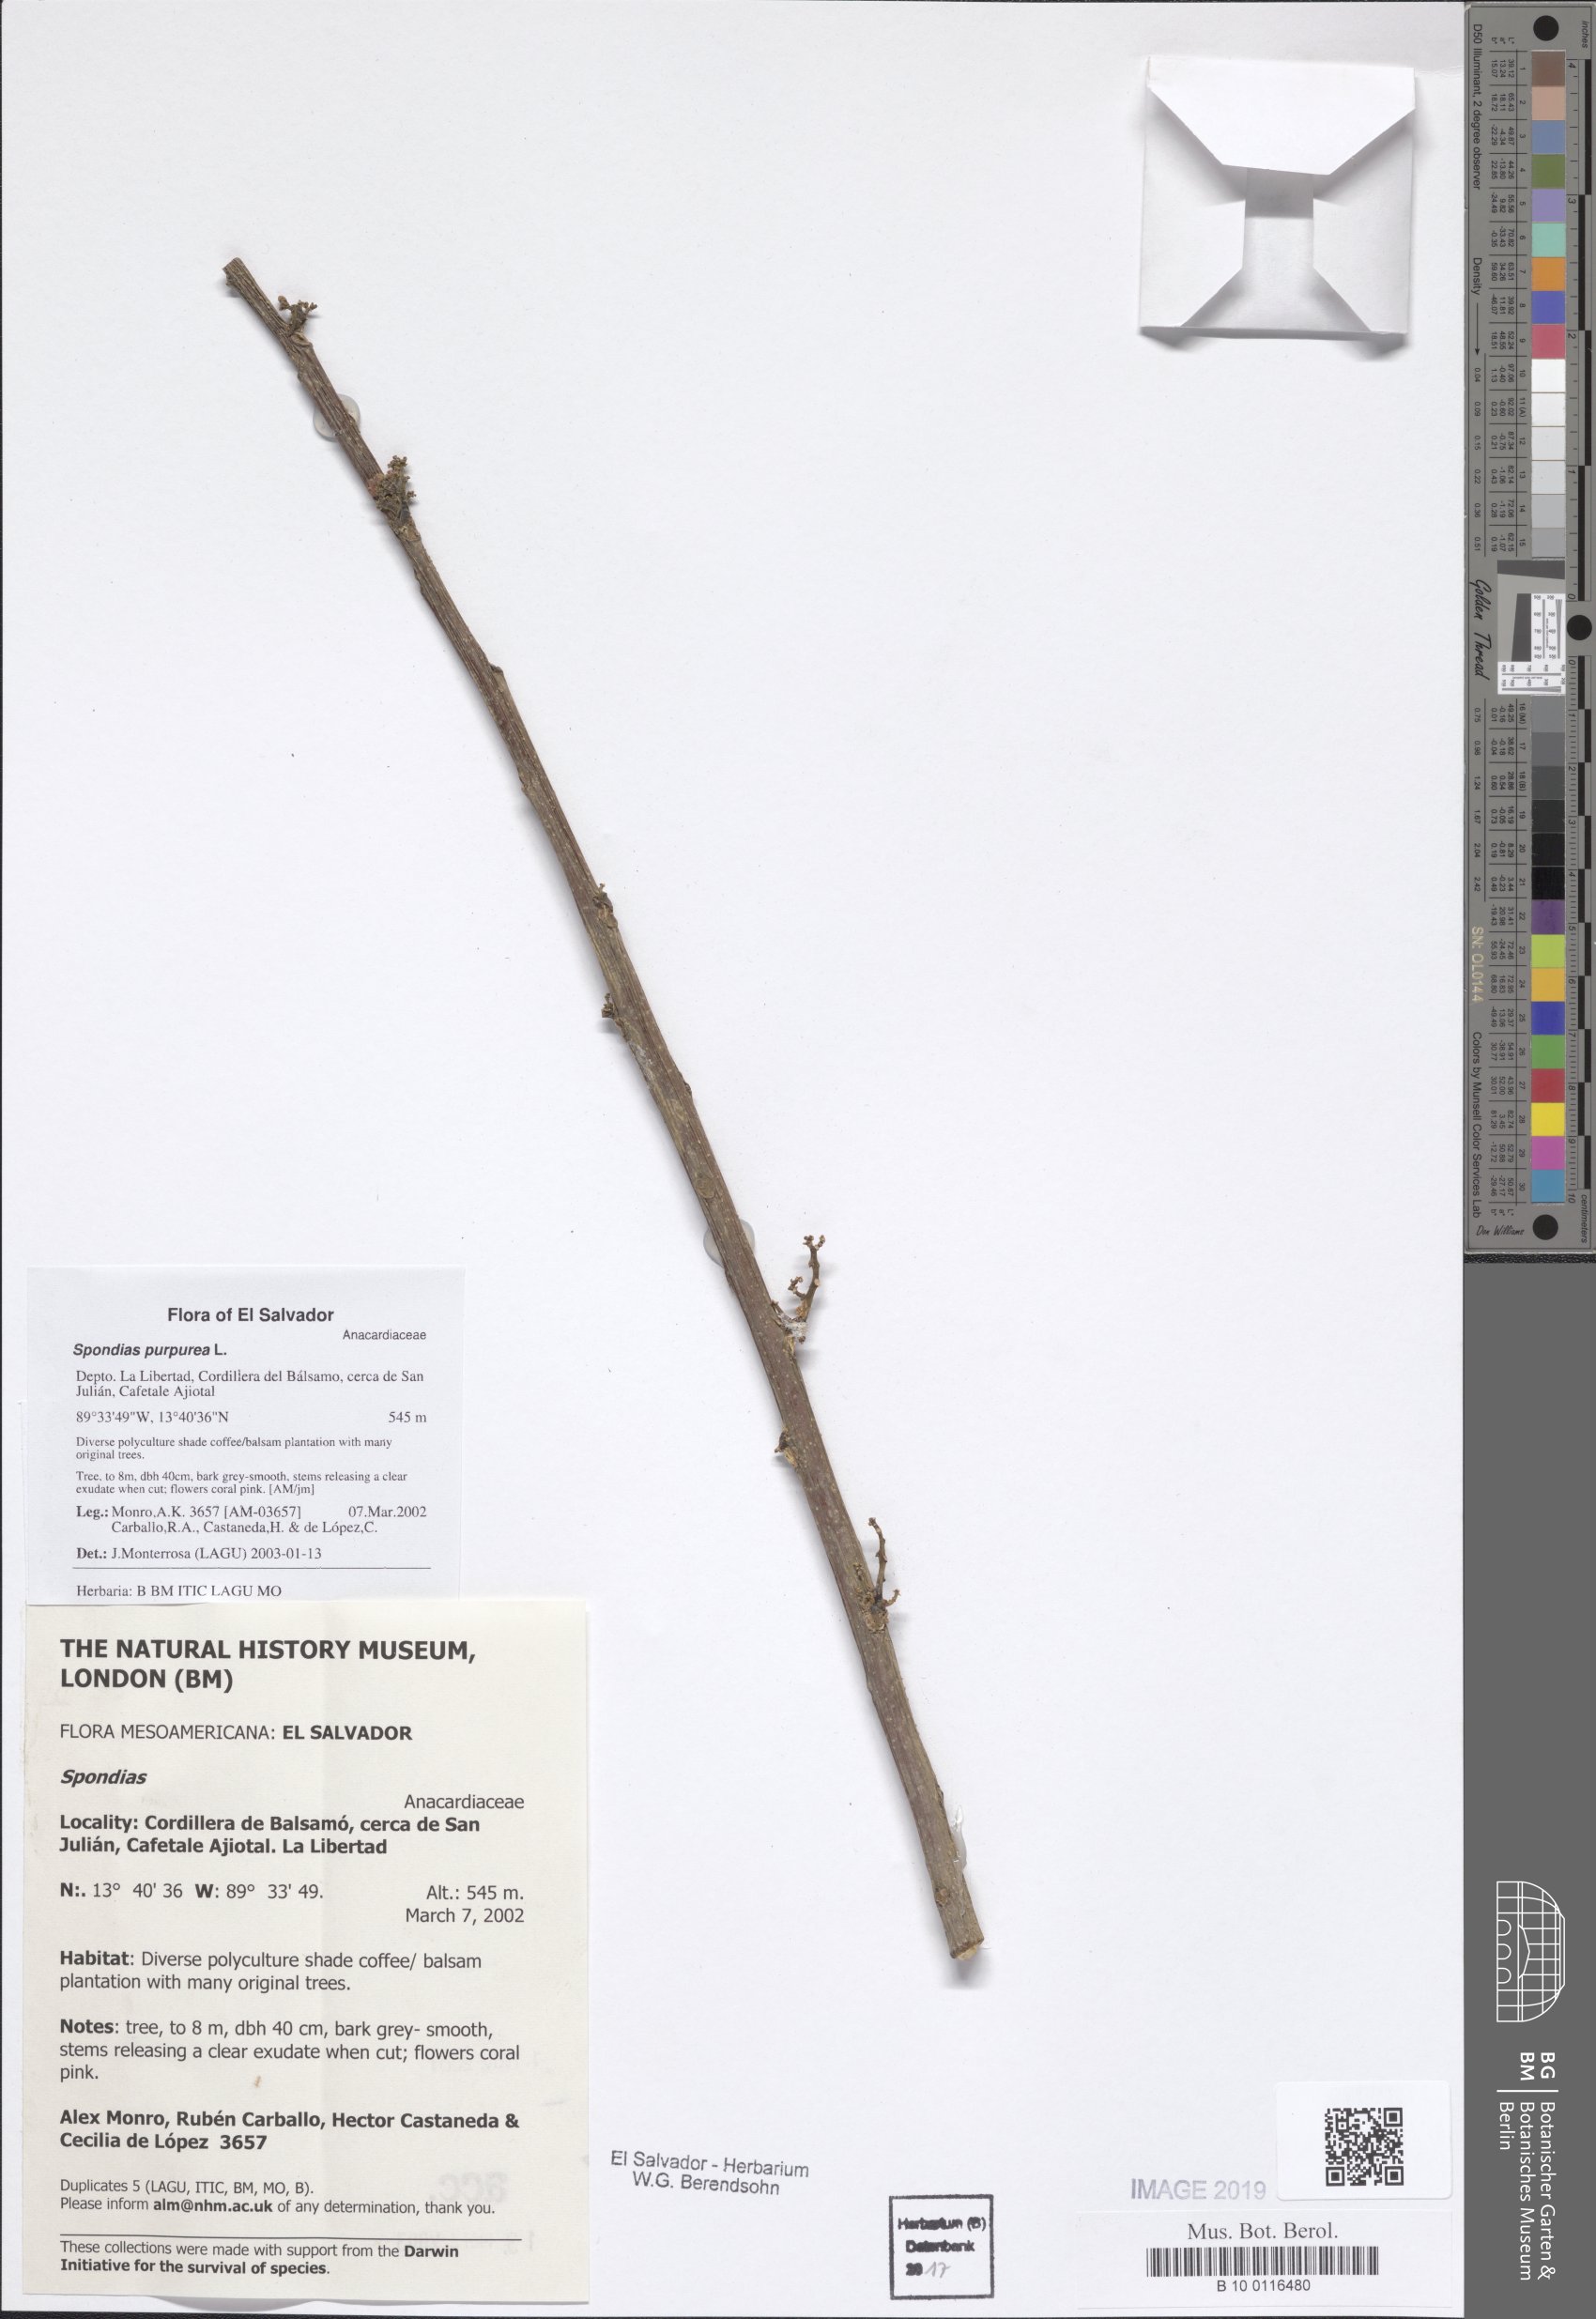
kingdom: Plantae
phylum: Tracheophyta
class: Magnoliopsida
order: Sapindales
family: Anacardiaceae
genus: Spondias
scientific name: Spondias purpurea
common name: Purple mombin
